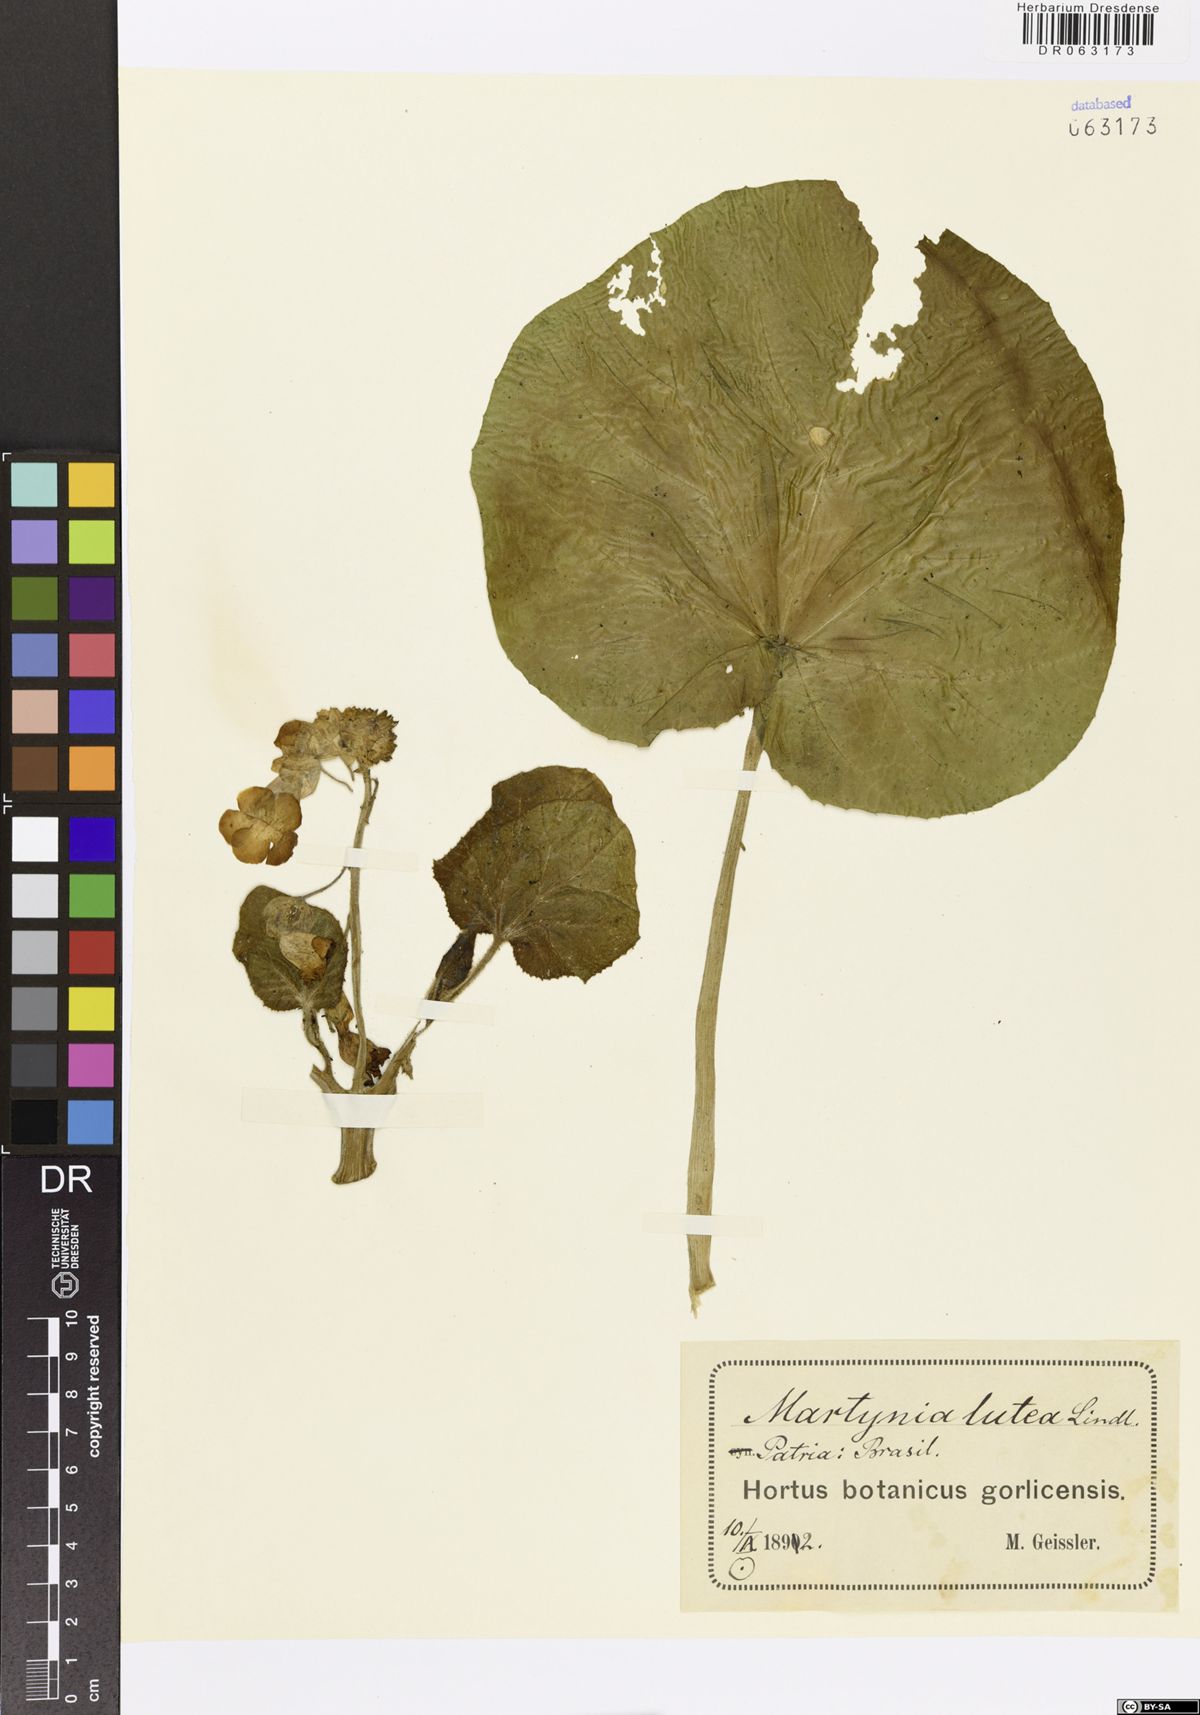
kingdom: Plantae
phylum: Tracheophyta
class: Magnoliopsida
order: Lamiales
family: Martyniaceae
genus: Ibicella
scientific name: Ibicella lutea
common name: Yellow unicorn-plant
